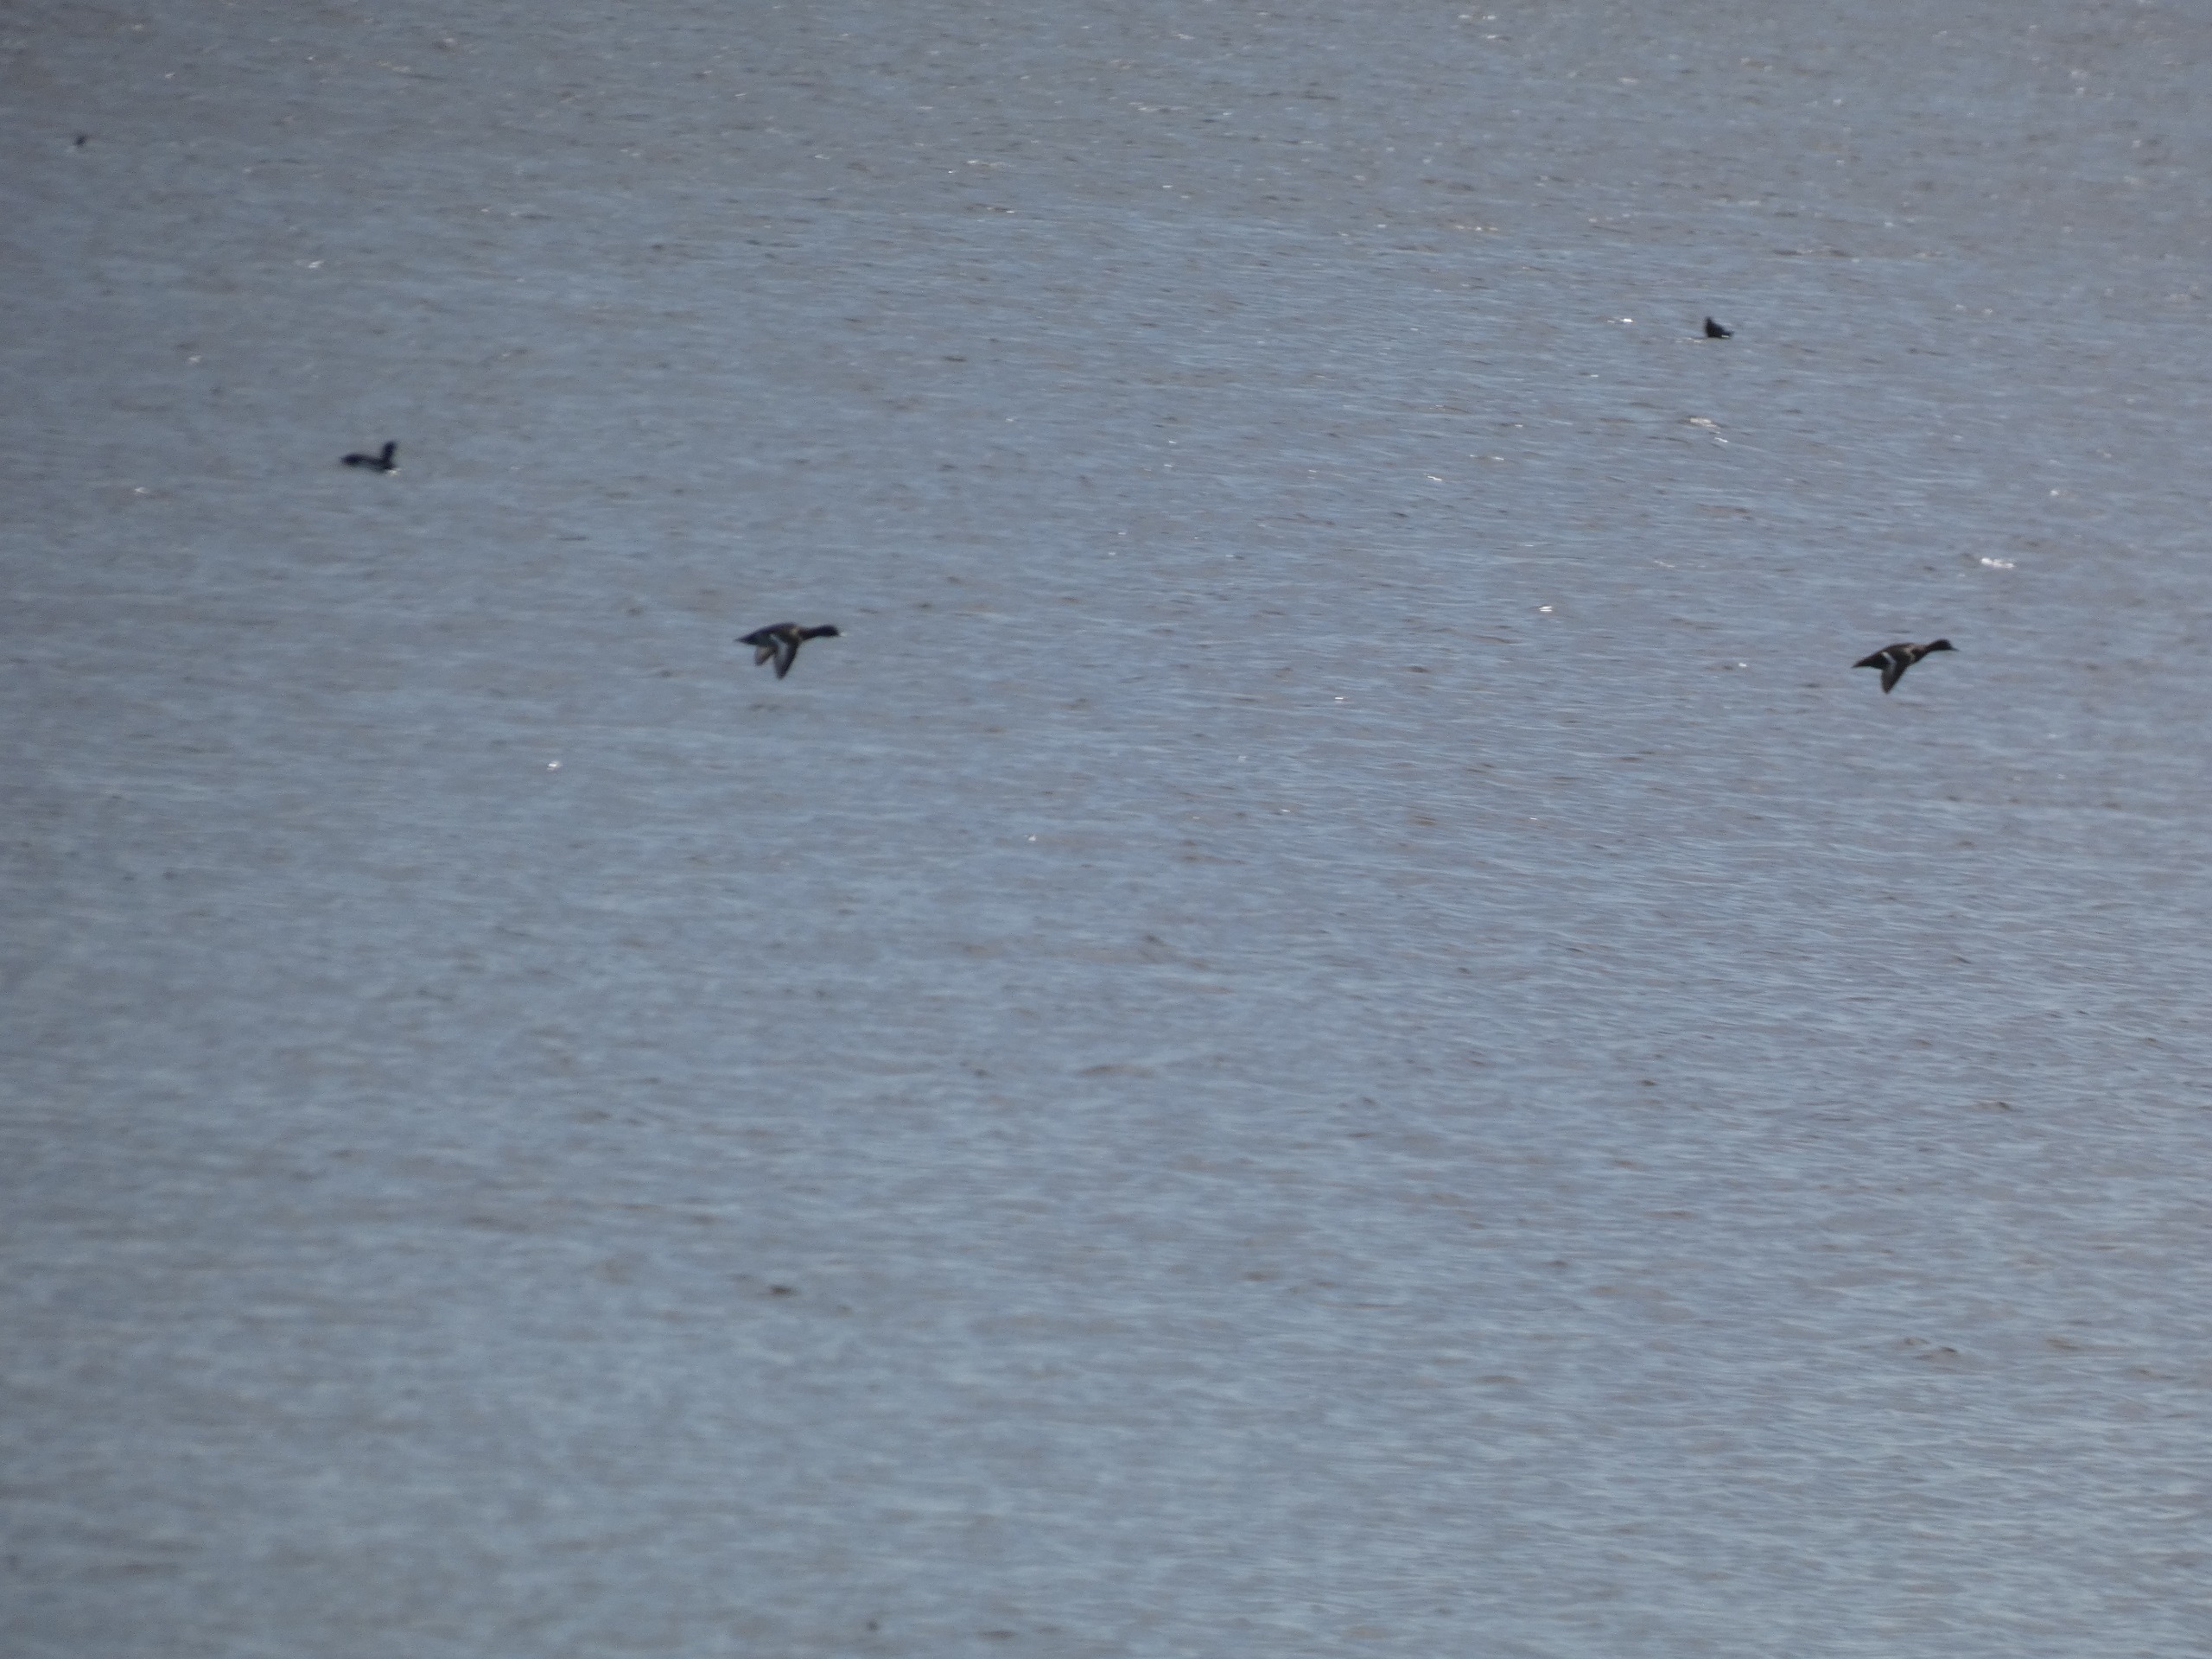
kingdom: Animalia
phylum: Chordata
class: Aves
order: Anseriformes
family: Anatidae
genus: Aythya
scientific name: Aythya fuligula
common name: Troldand
